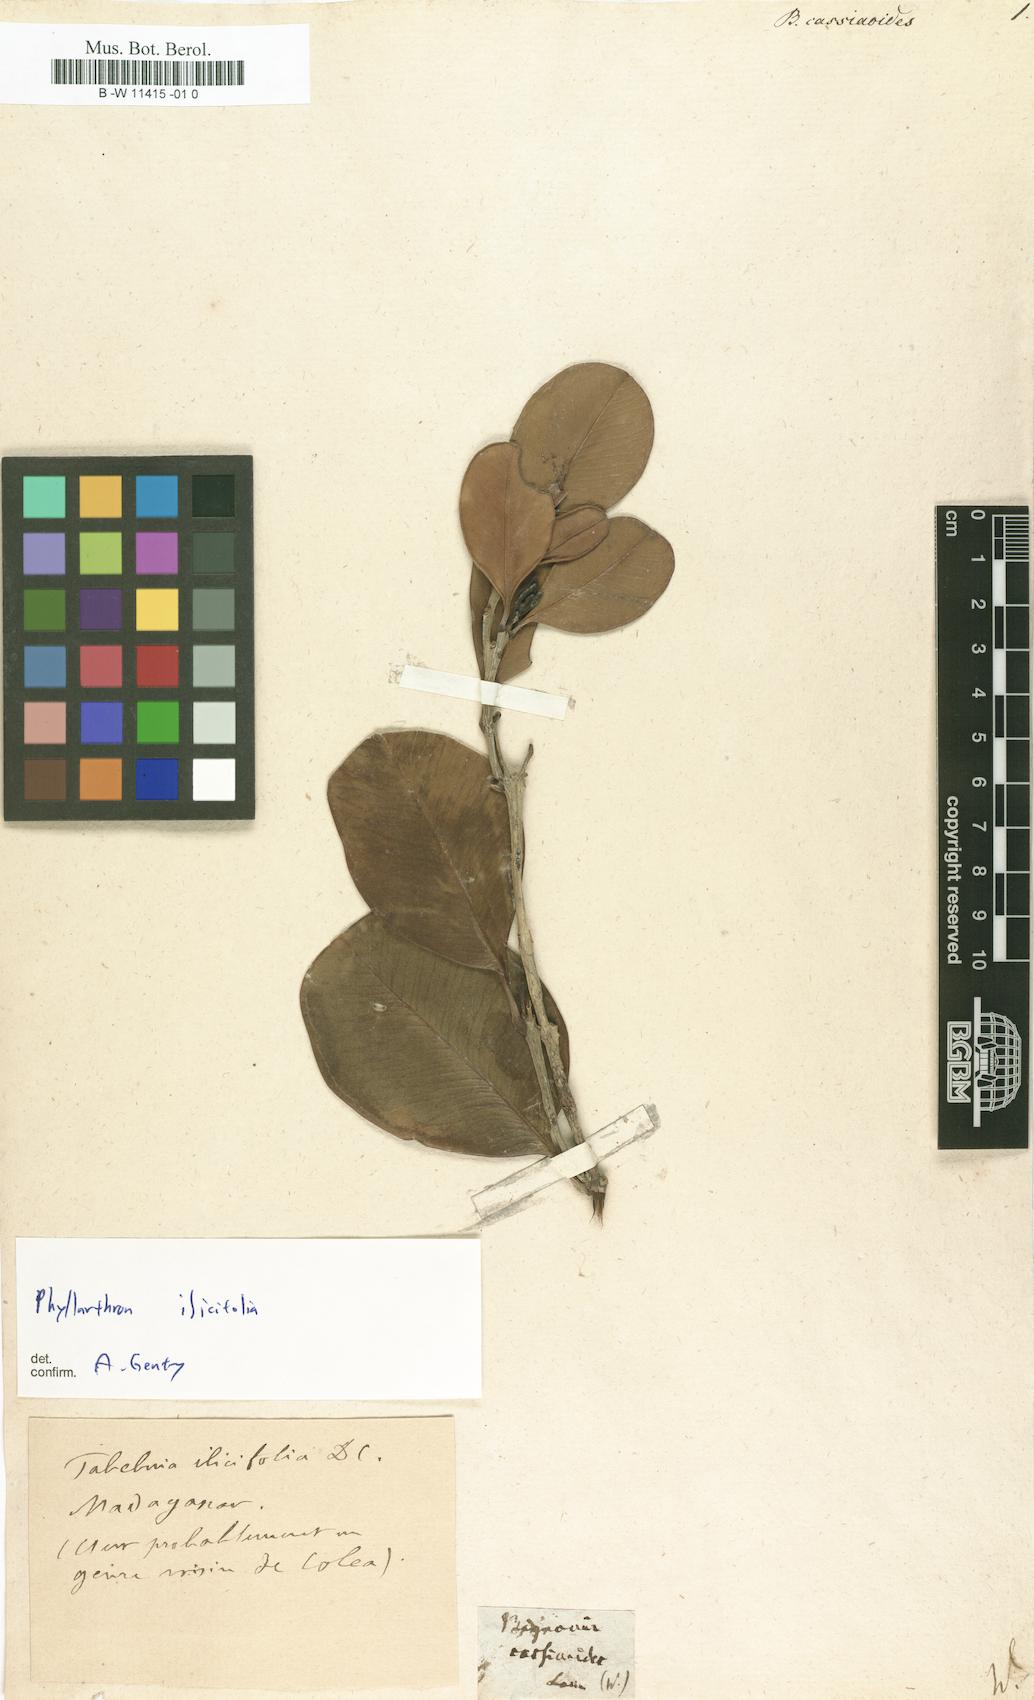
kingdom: Plantae
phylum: Tracheophyta
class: Magnoliopsida
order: Lamiales
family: Bignoniaceae
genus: Tabebuia
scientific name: Tabebuia cassinoides
